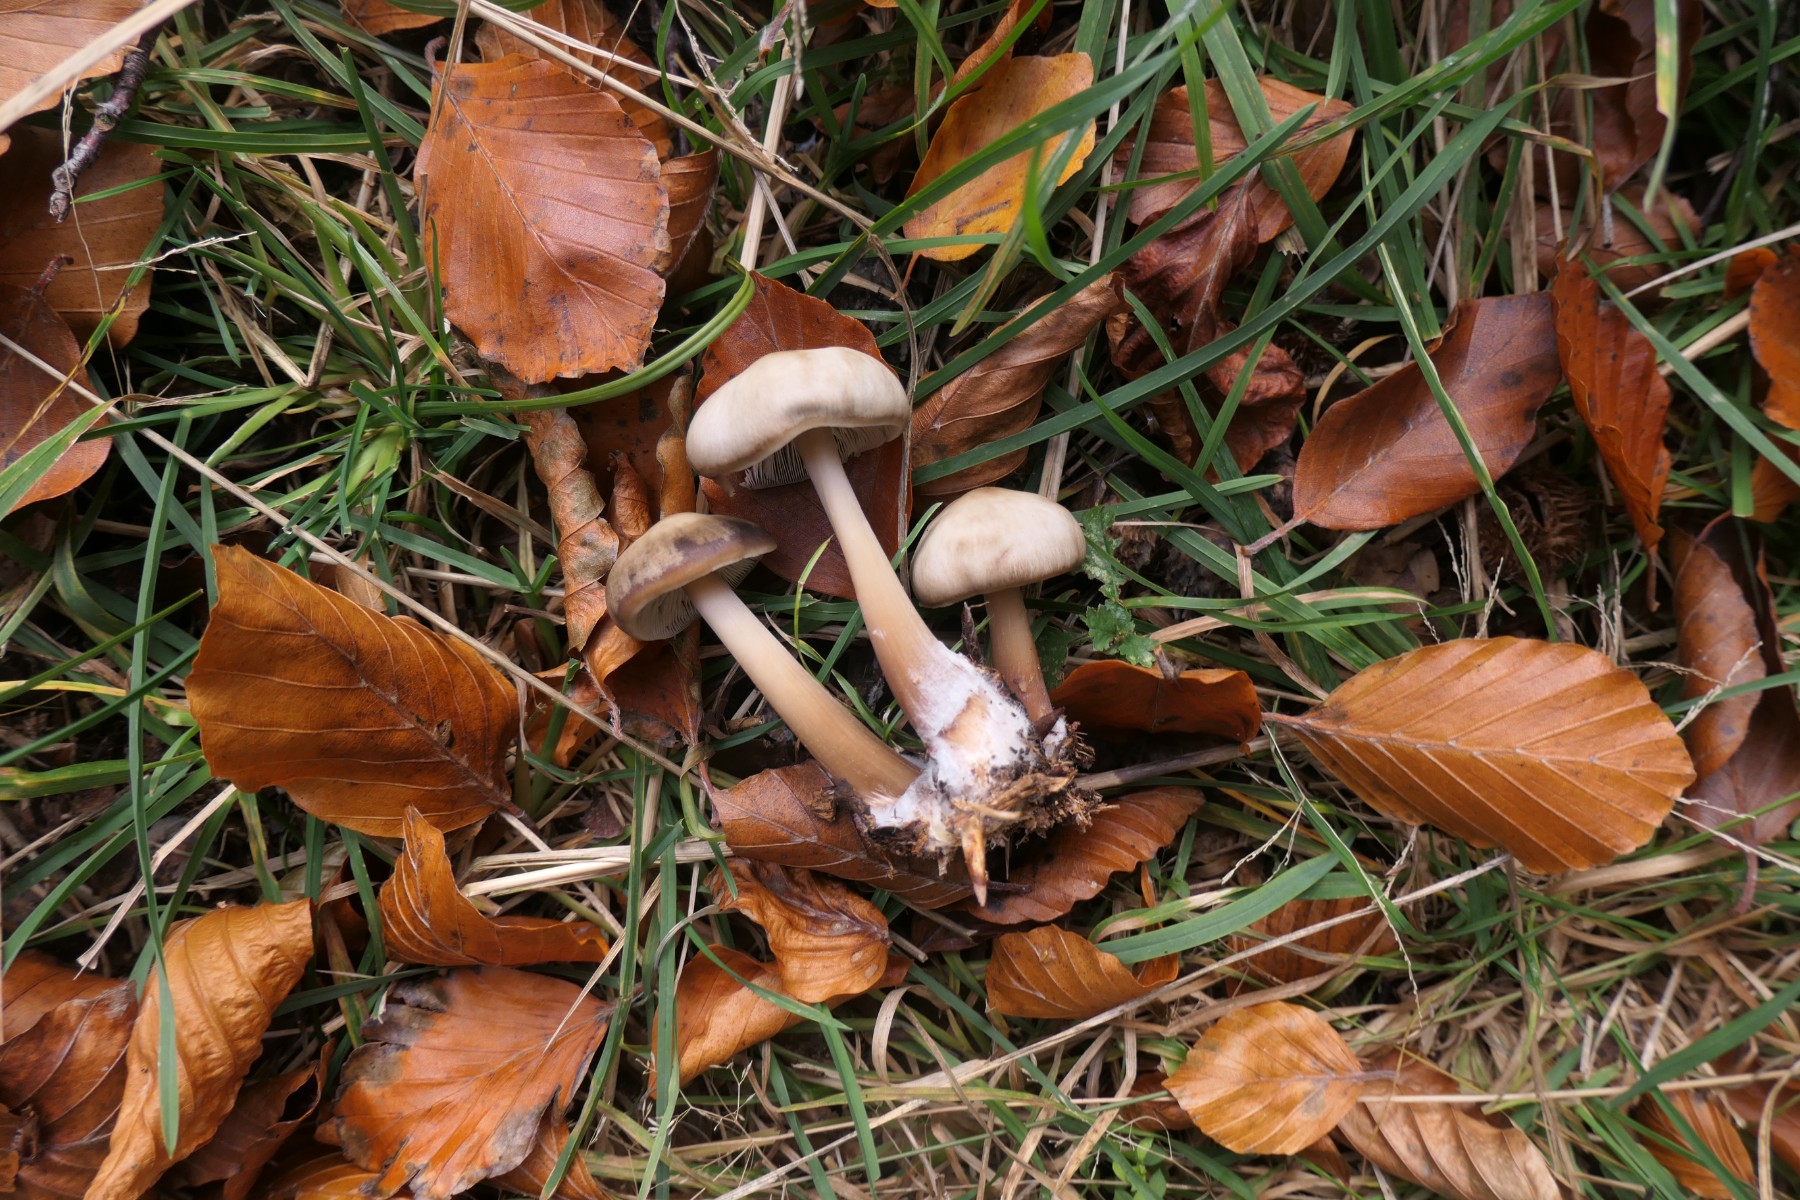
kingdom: Fungi
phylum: Basidiomycota
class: Agaricomycetes
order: Agaricales
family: Hygrophoraceae
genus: Ampulloclitocybe
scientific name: Ampulloclitocybe clavipes
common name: køllefod
